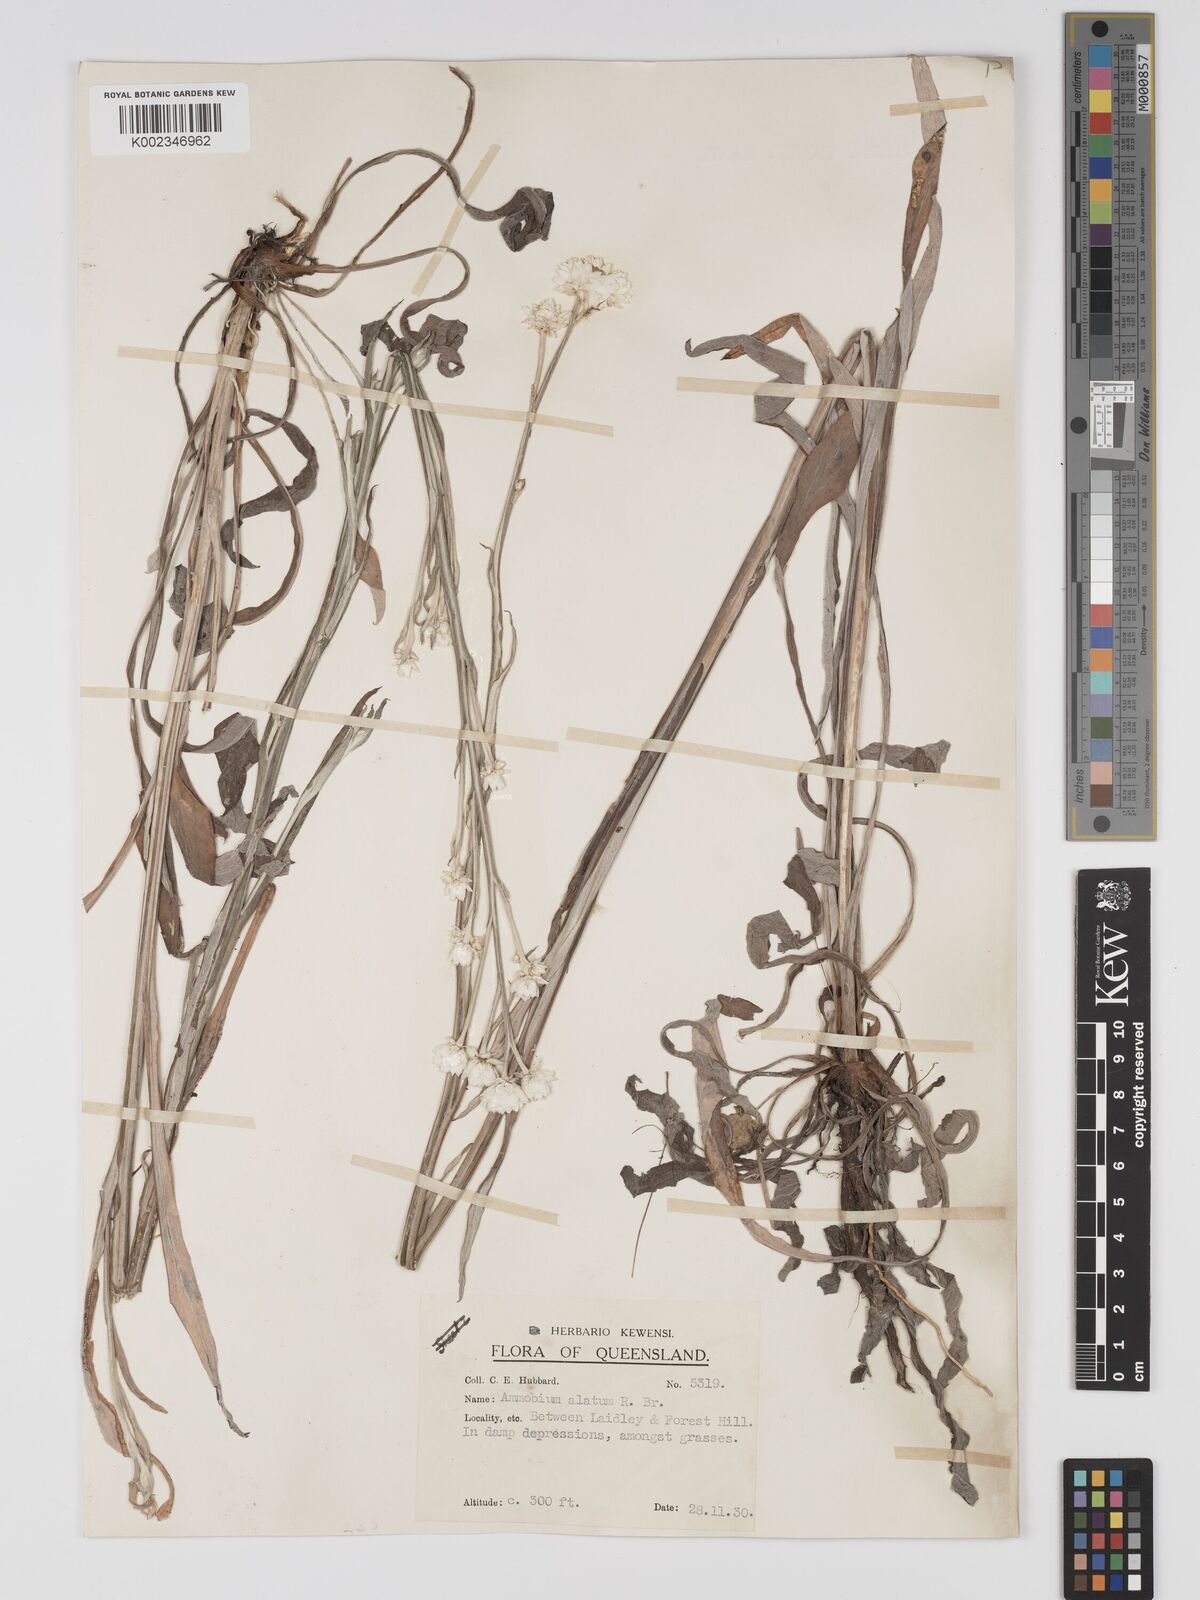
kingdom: Plantae
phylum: Tracheophyta
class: Magnoliopsida
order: Asterales
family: Asteraceae
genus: Ammobium
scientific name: Ammobium alatum
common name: Winged everlasting
